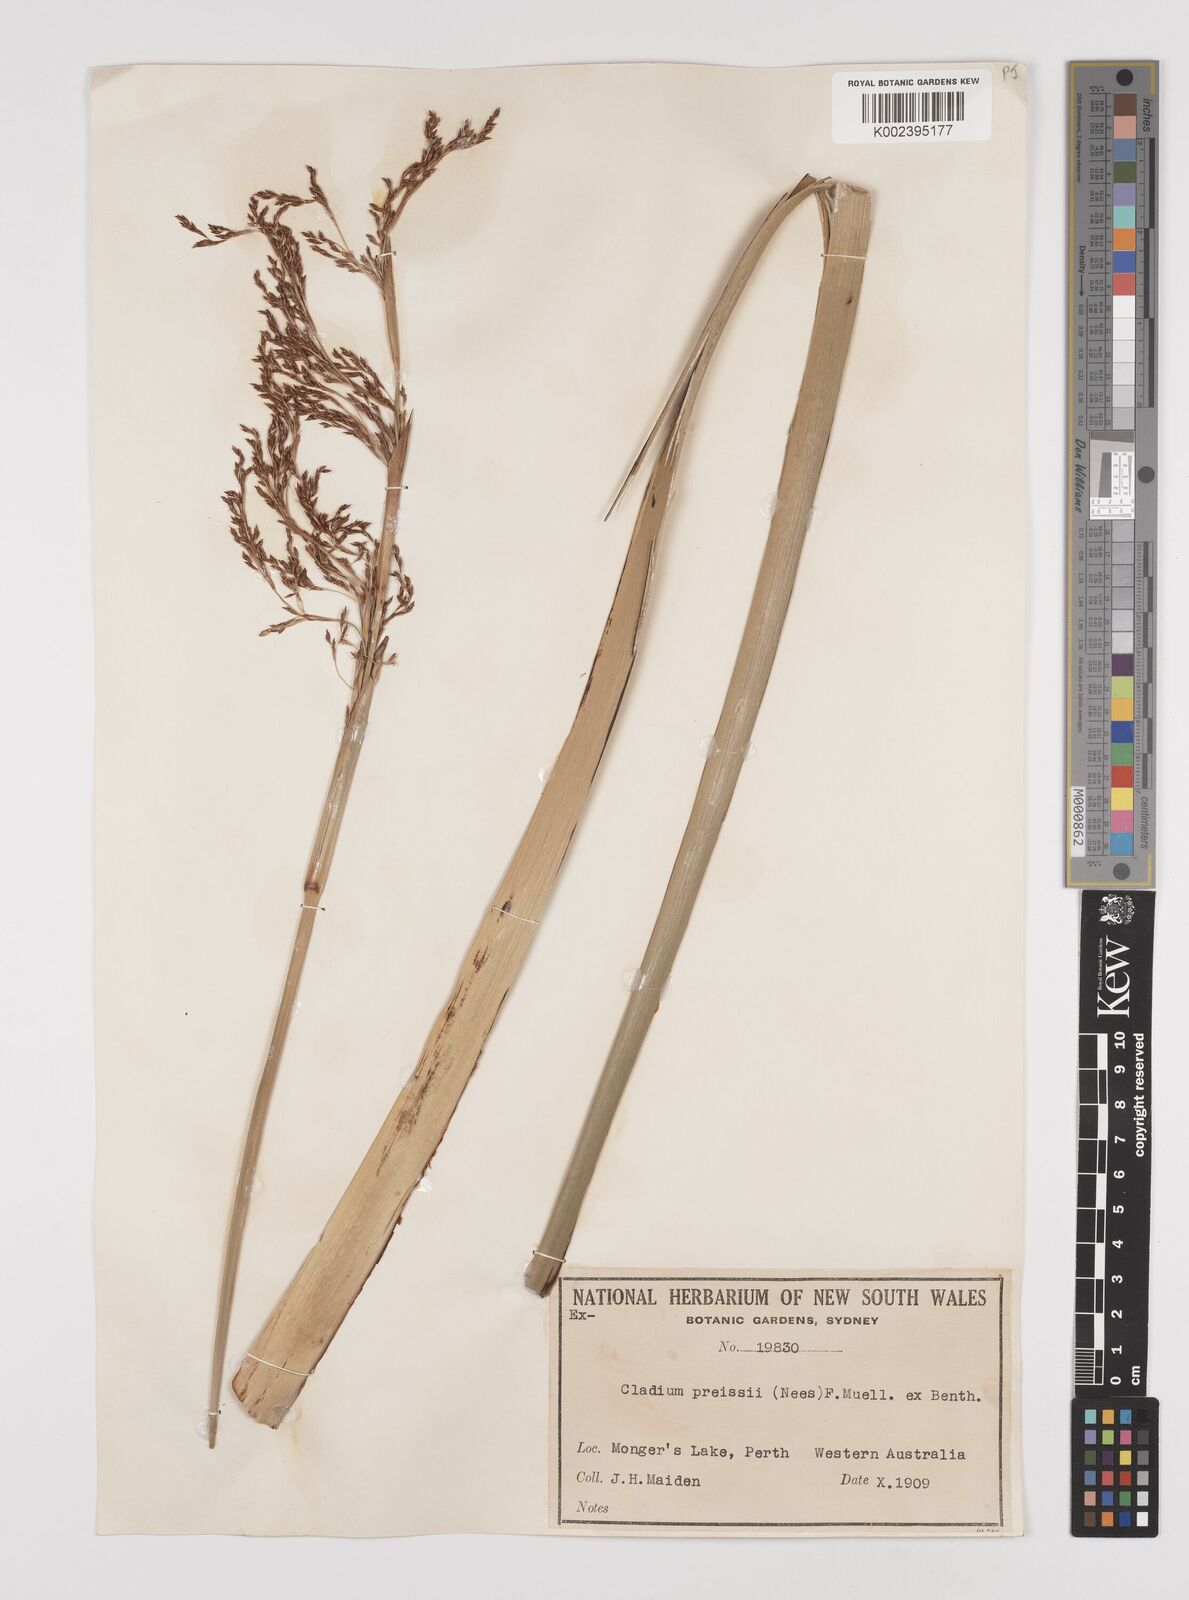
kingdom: Plantae
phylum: Tracheophyta
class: Liliopsida
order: Poales
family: Cyperaceae
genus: Machaerina
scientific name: Machaerina preissii
